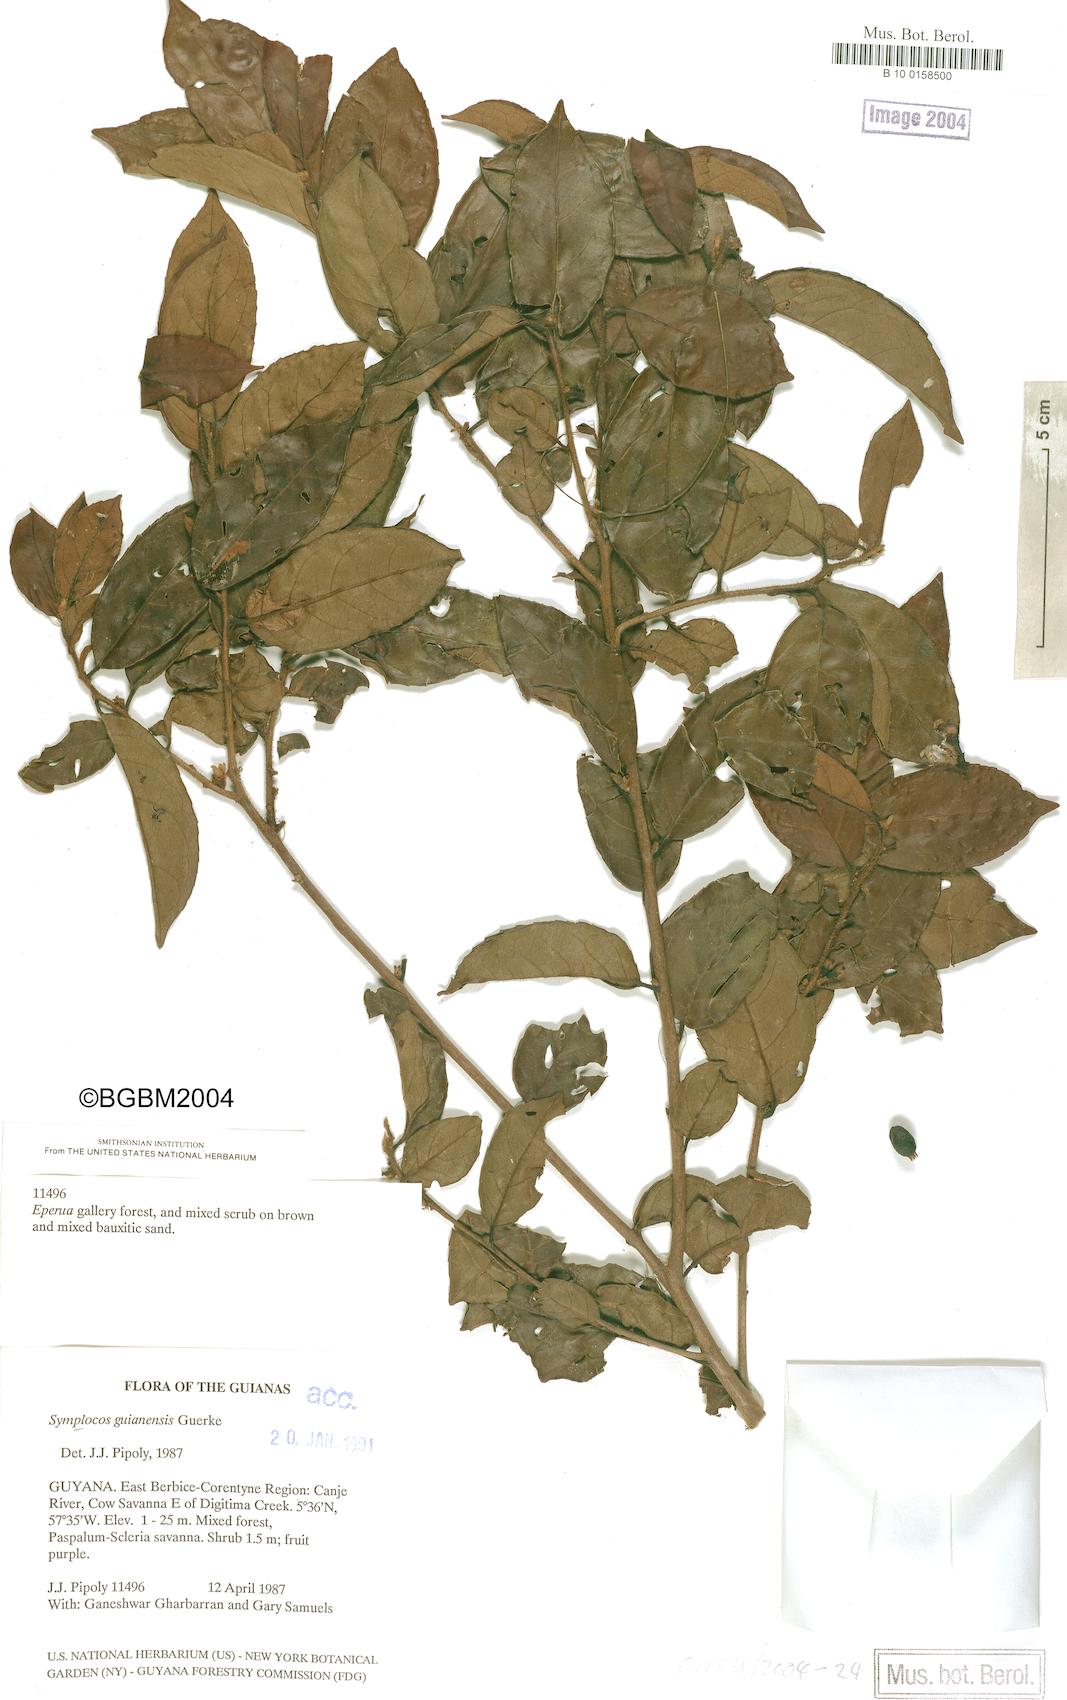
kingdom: Plantae
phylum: Tracheophyta
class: Magnoliopsida
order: Ericales
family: Symplocaceae
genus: Symplocos
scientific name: Symplocos guianensis
